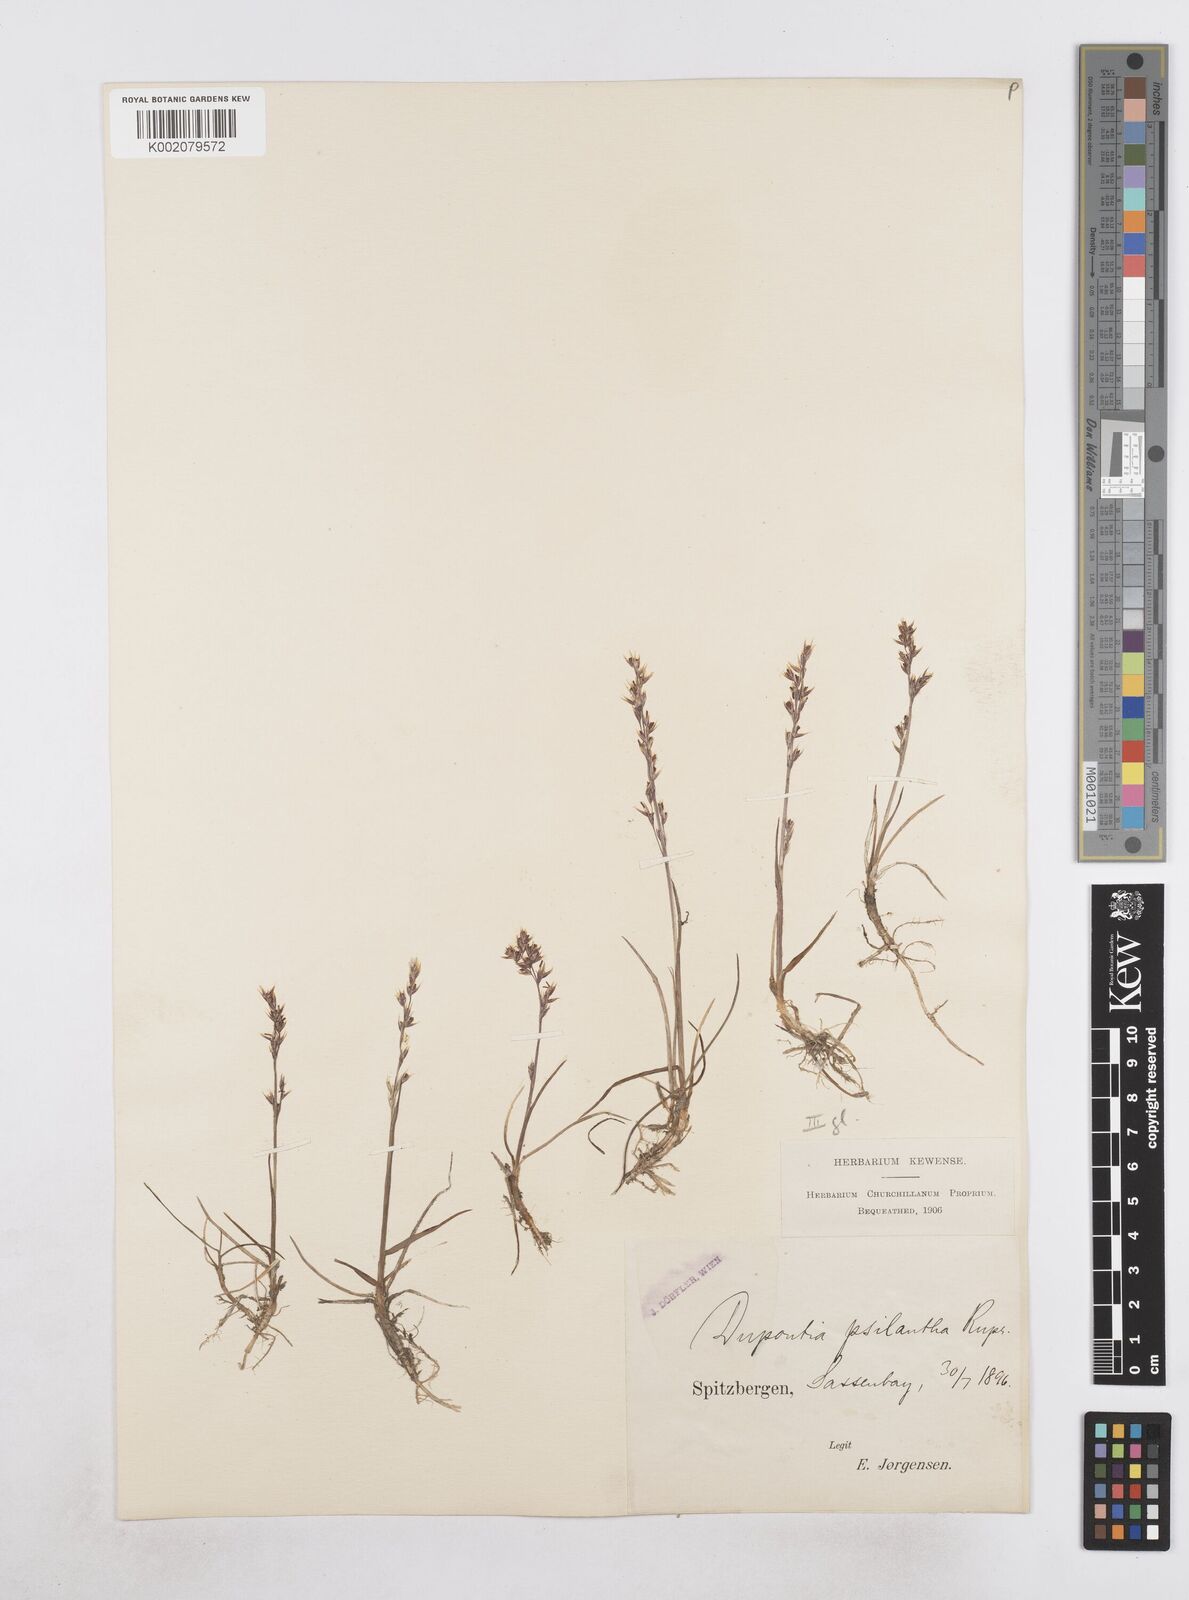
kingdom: Plantae
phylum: Tracheophyta
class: Liliopsida
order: Poales
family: Poaceae
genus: Dupontia
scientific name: Dupontia fisheri
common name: Tundra grass
